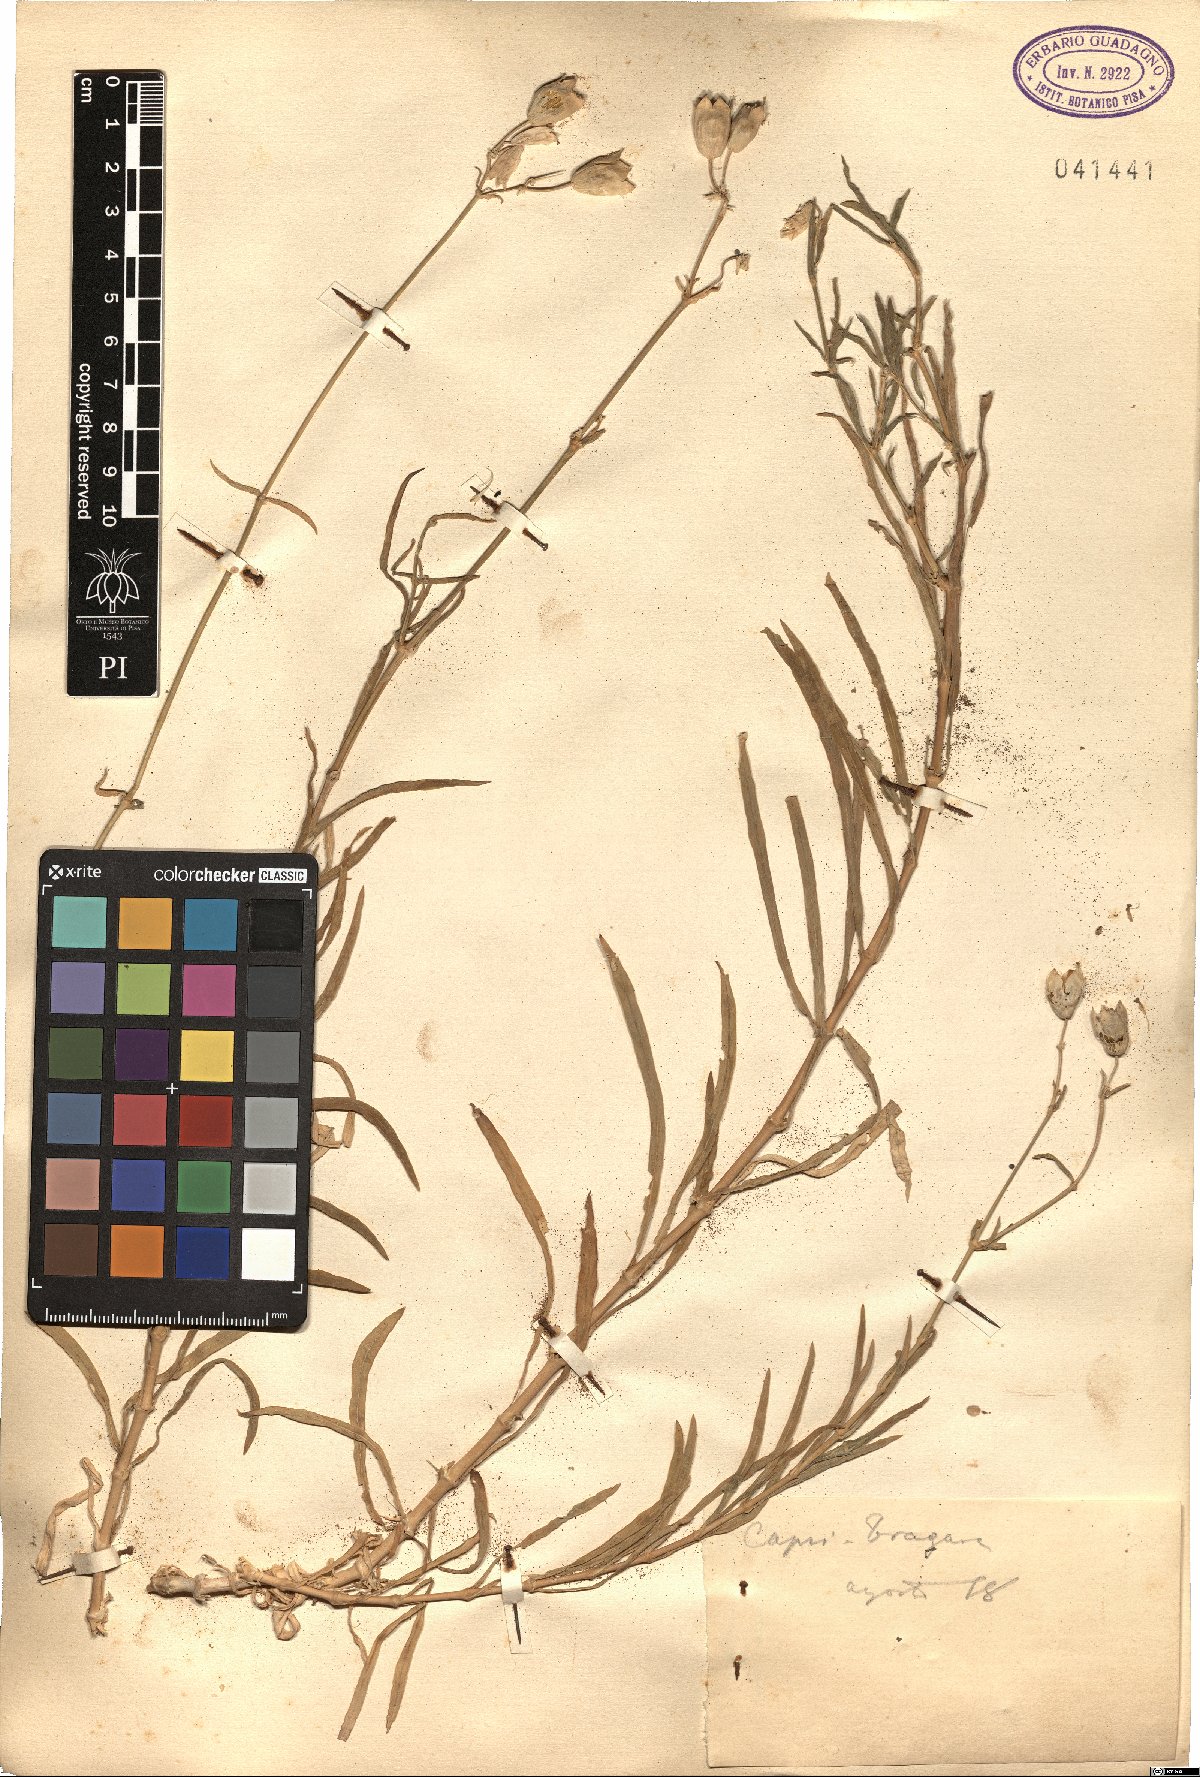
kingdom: Plantae
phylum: Tracheophyta
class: Magnoliopsida
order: Caryophyllales
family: Caryophyllaceae
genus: Silene
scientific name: Silene
